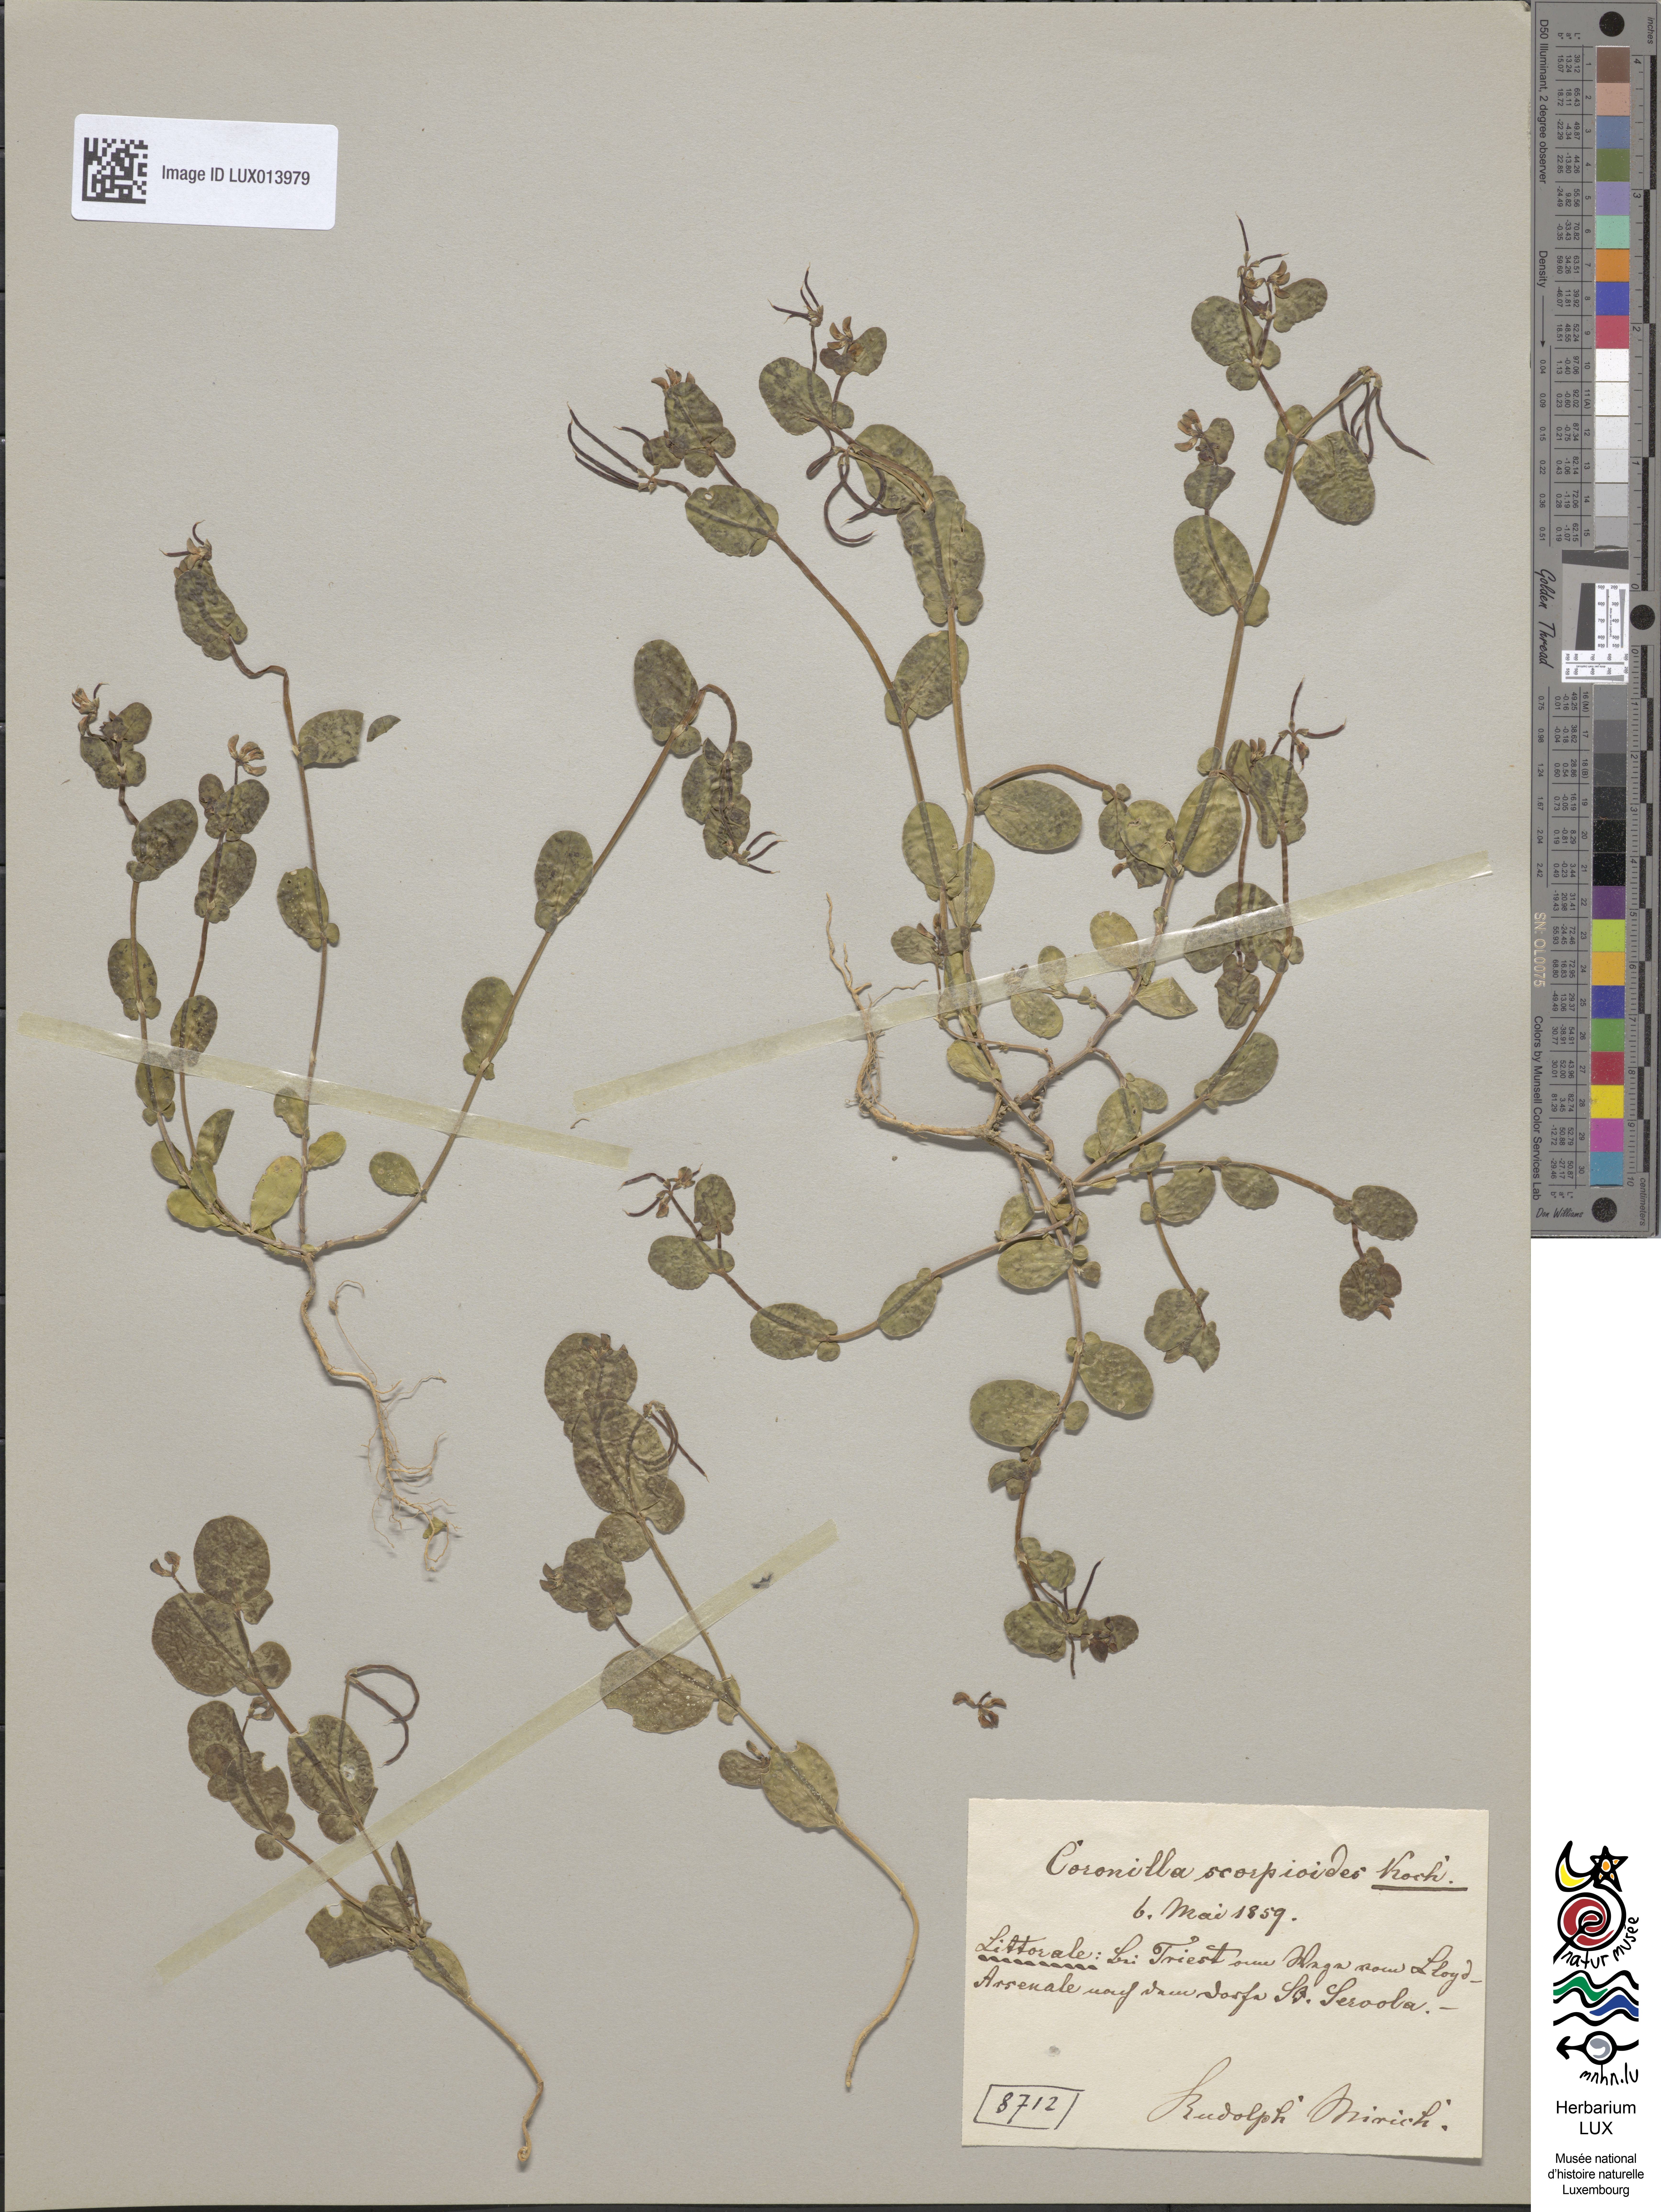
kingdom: Plantae
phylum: Tracheophyta
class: Magnoliopsida
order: Fabales
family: Fabaceae
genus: Coronilla
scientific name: Coronilla scorpioides
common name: Annual scorpion-vetch
